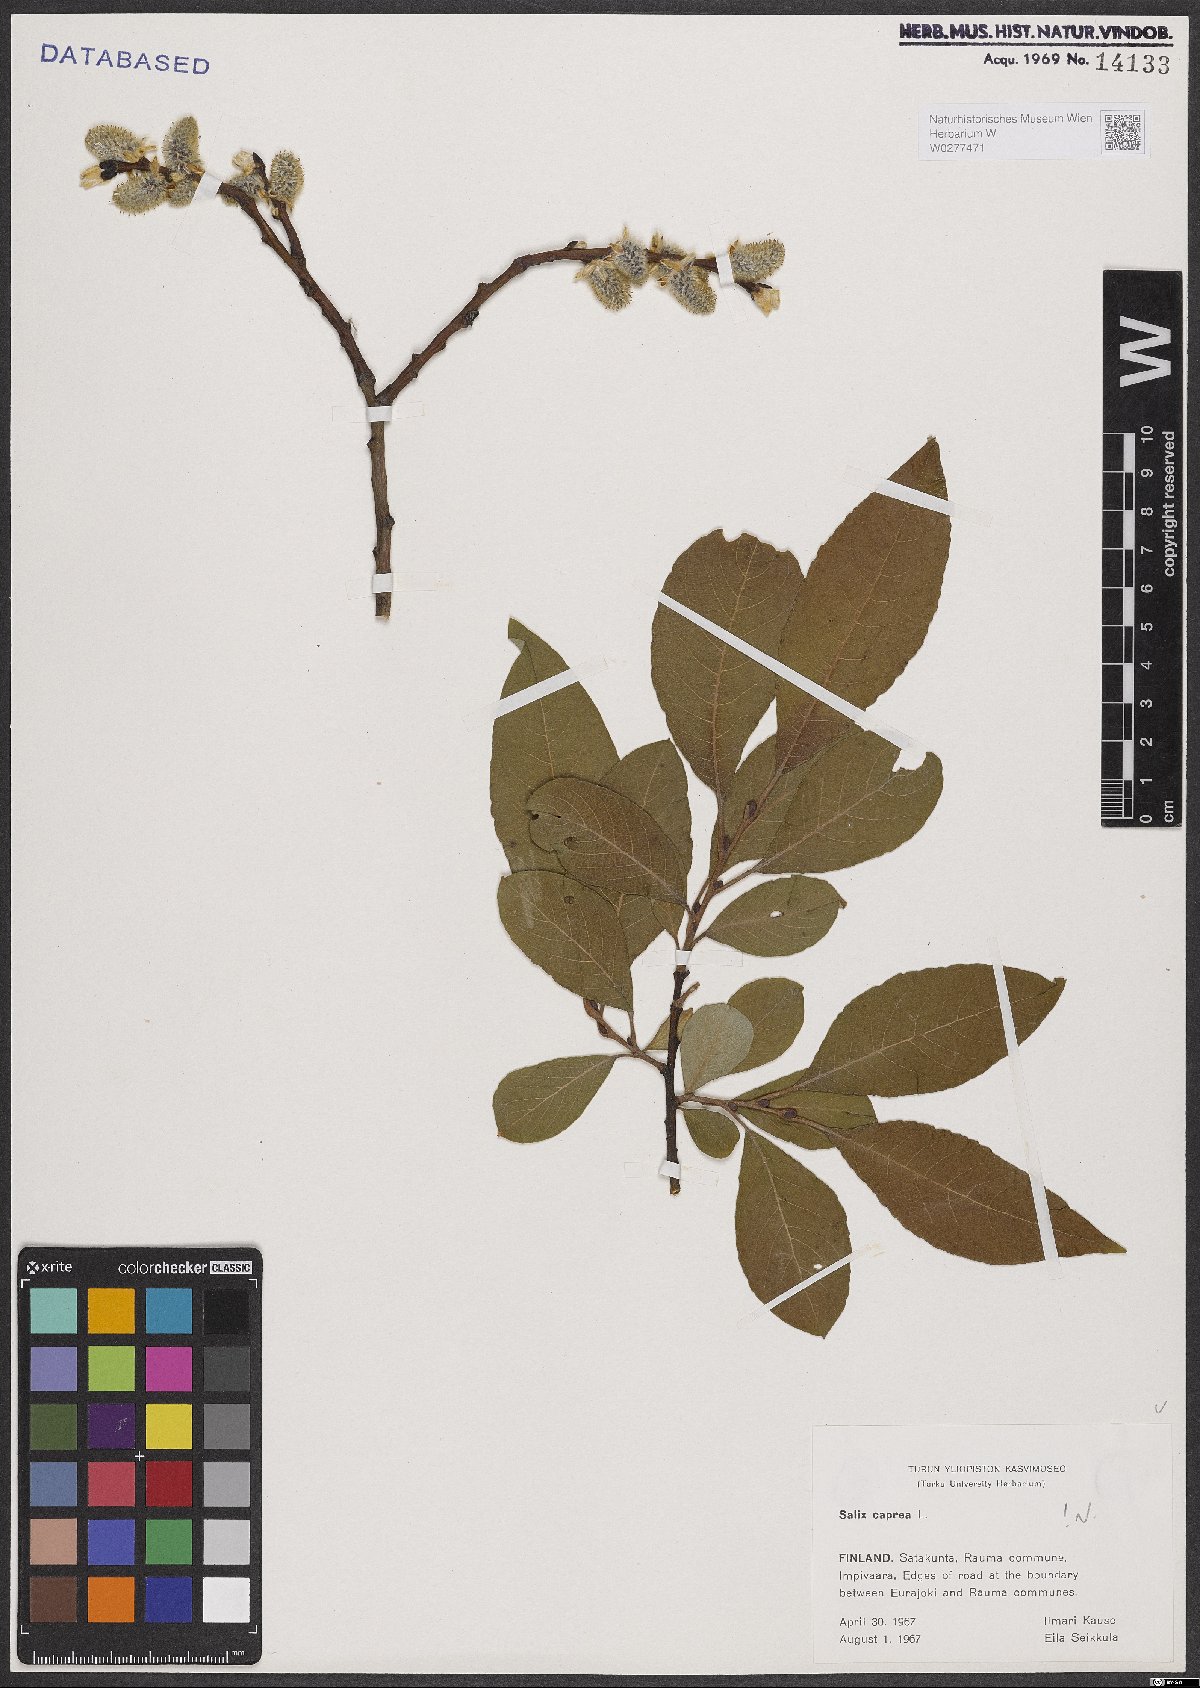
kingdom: Plantae
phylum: Tracheophyta
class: Magnoliopsida
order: Malpighiales
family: Salicaceae
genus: Salix
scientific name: Salix caprea
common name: Goat willow
